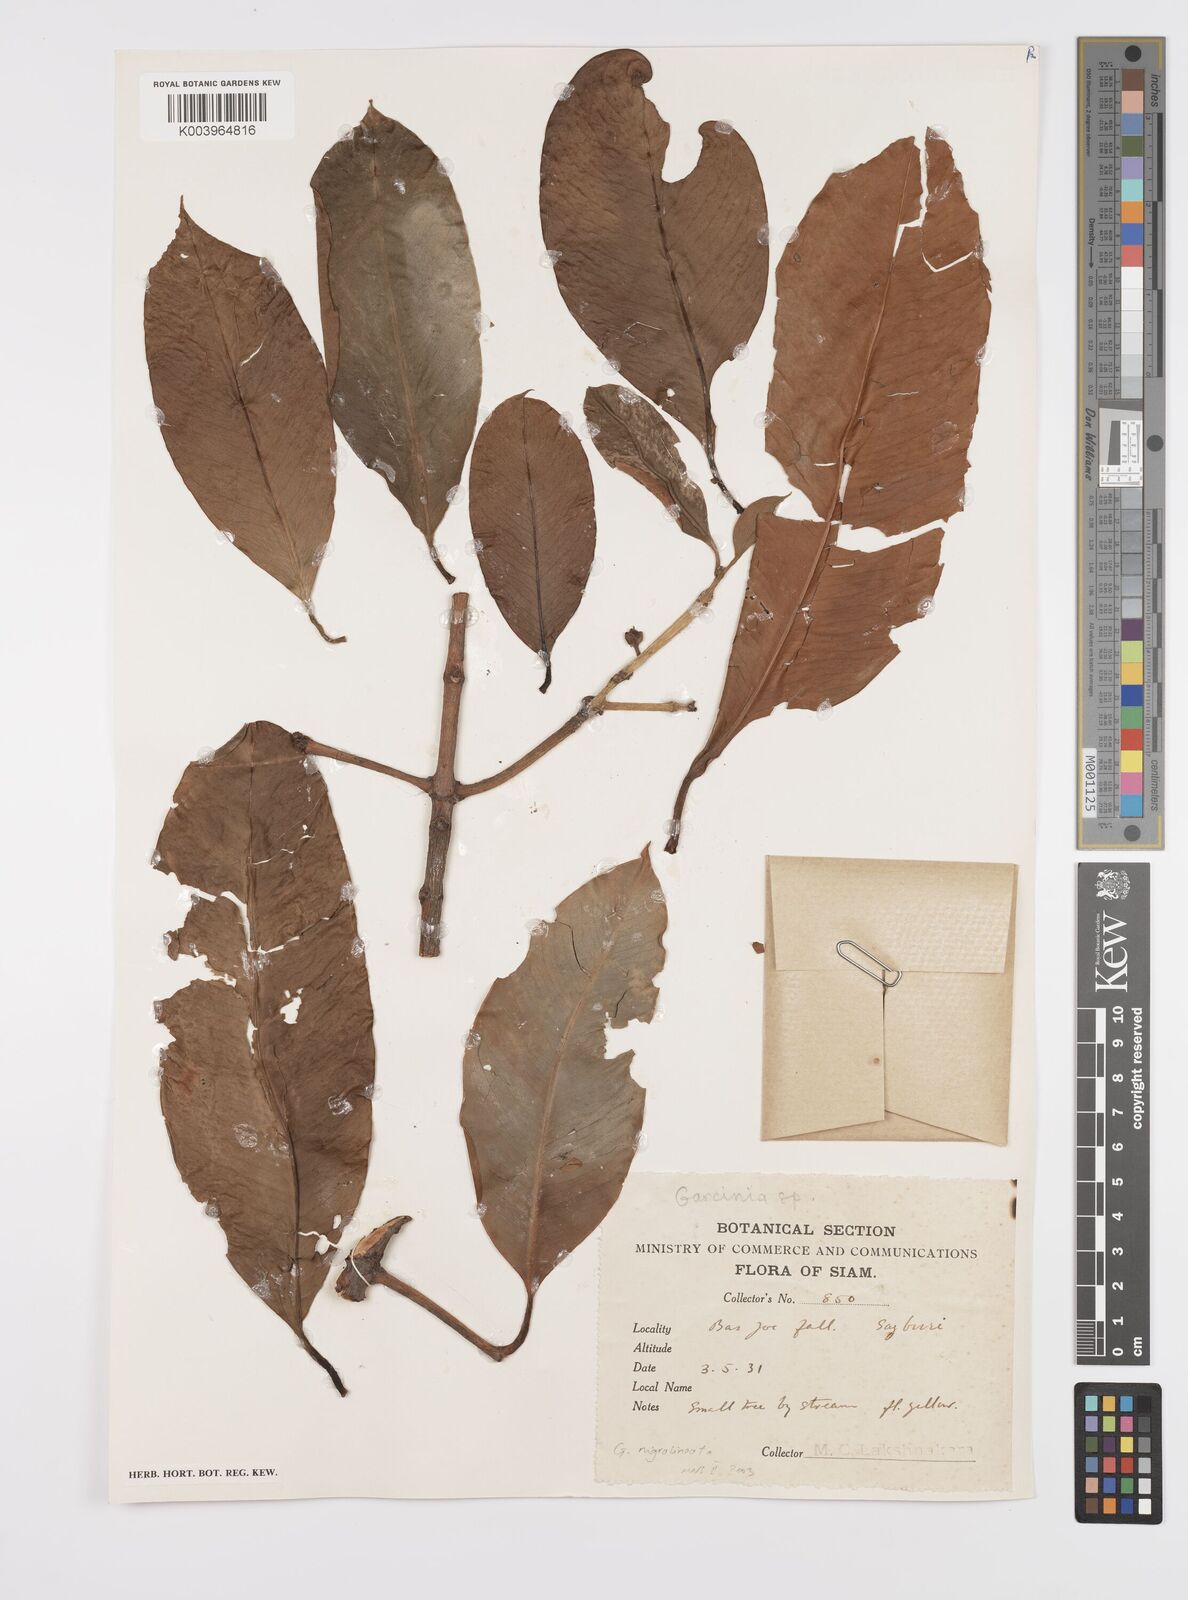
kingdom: Plantae
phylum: Tracheophyta
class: Magnoliopsida
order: Malpighiales
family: Clusiaceae
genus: Garcinia
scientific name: Garcinia
